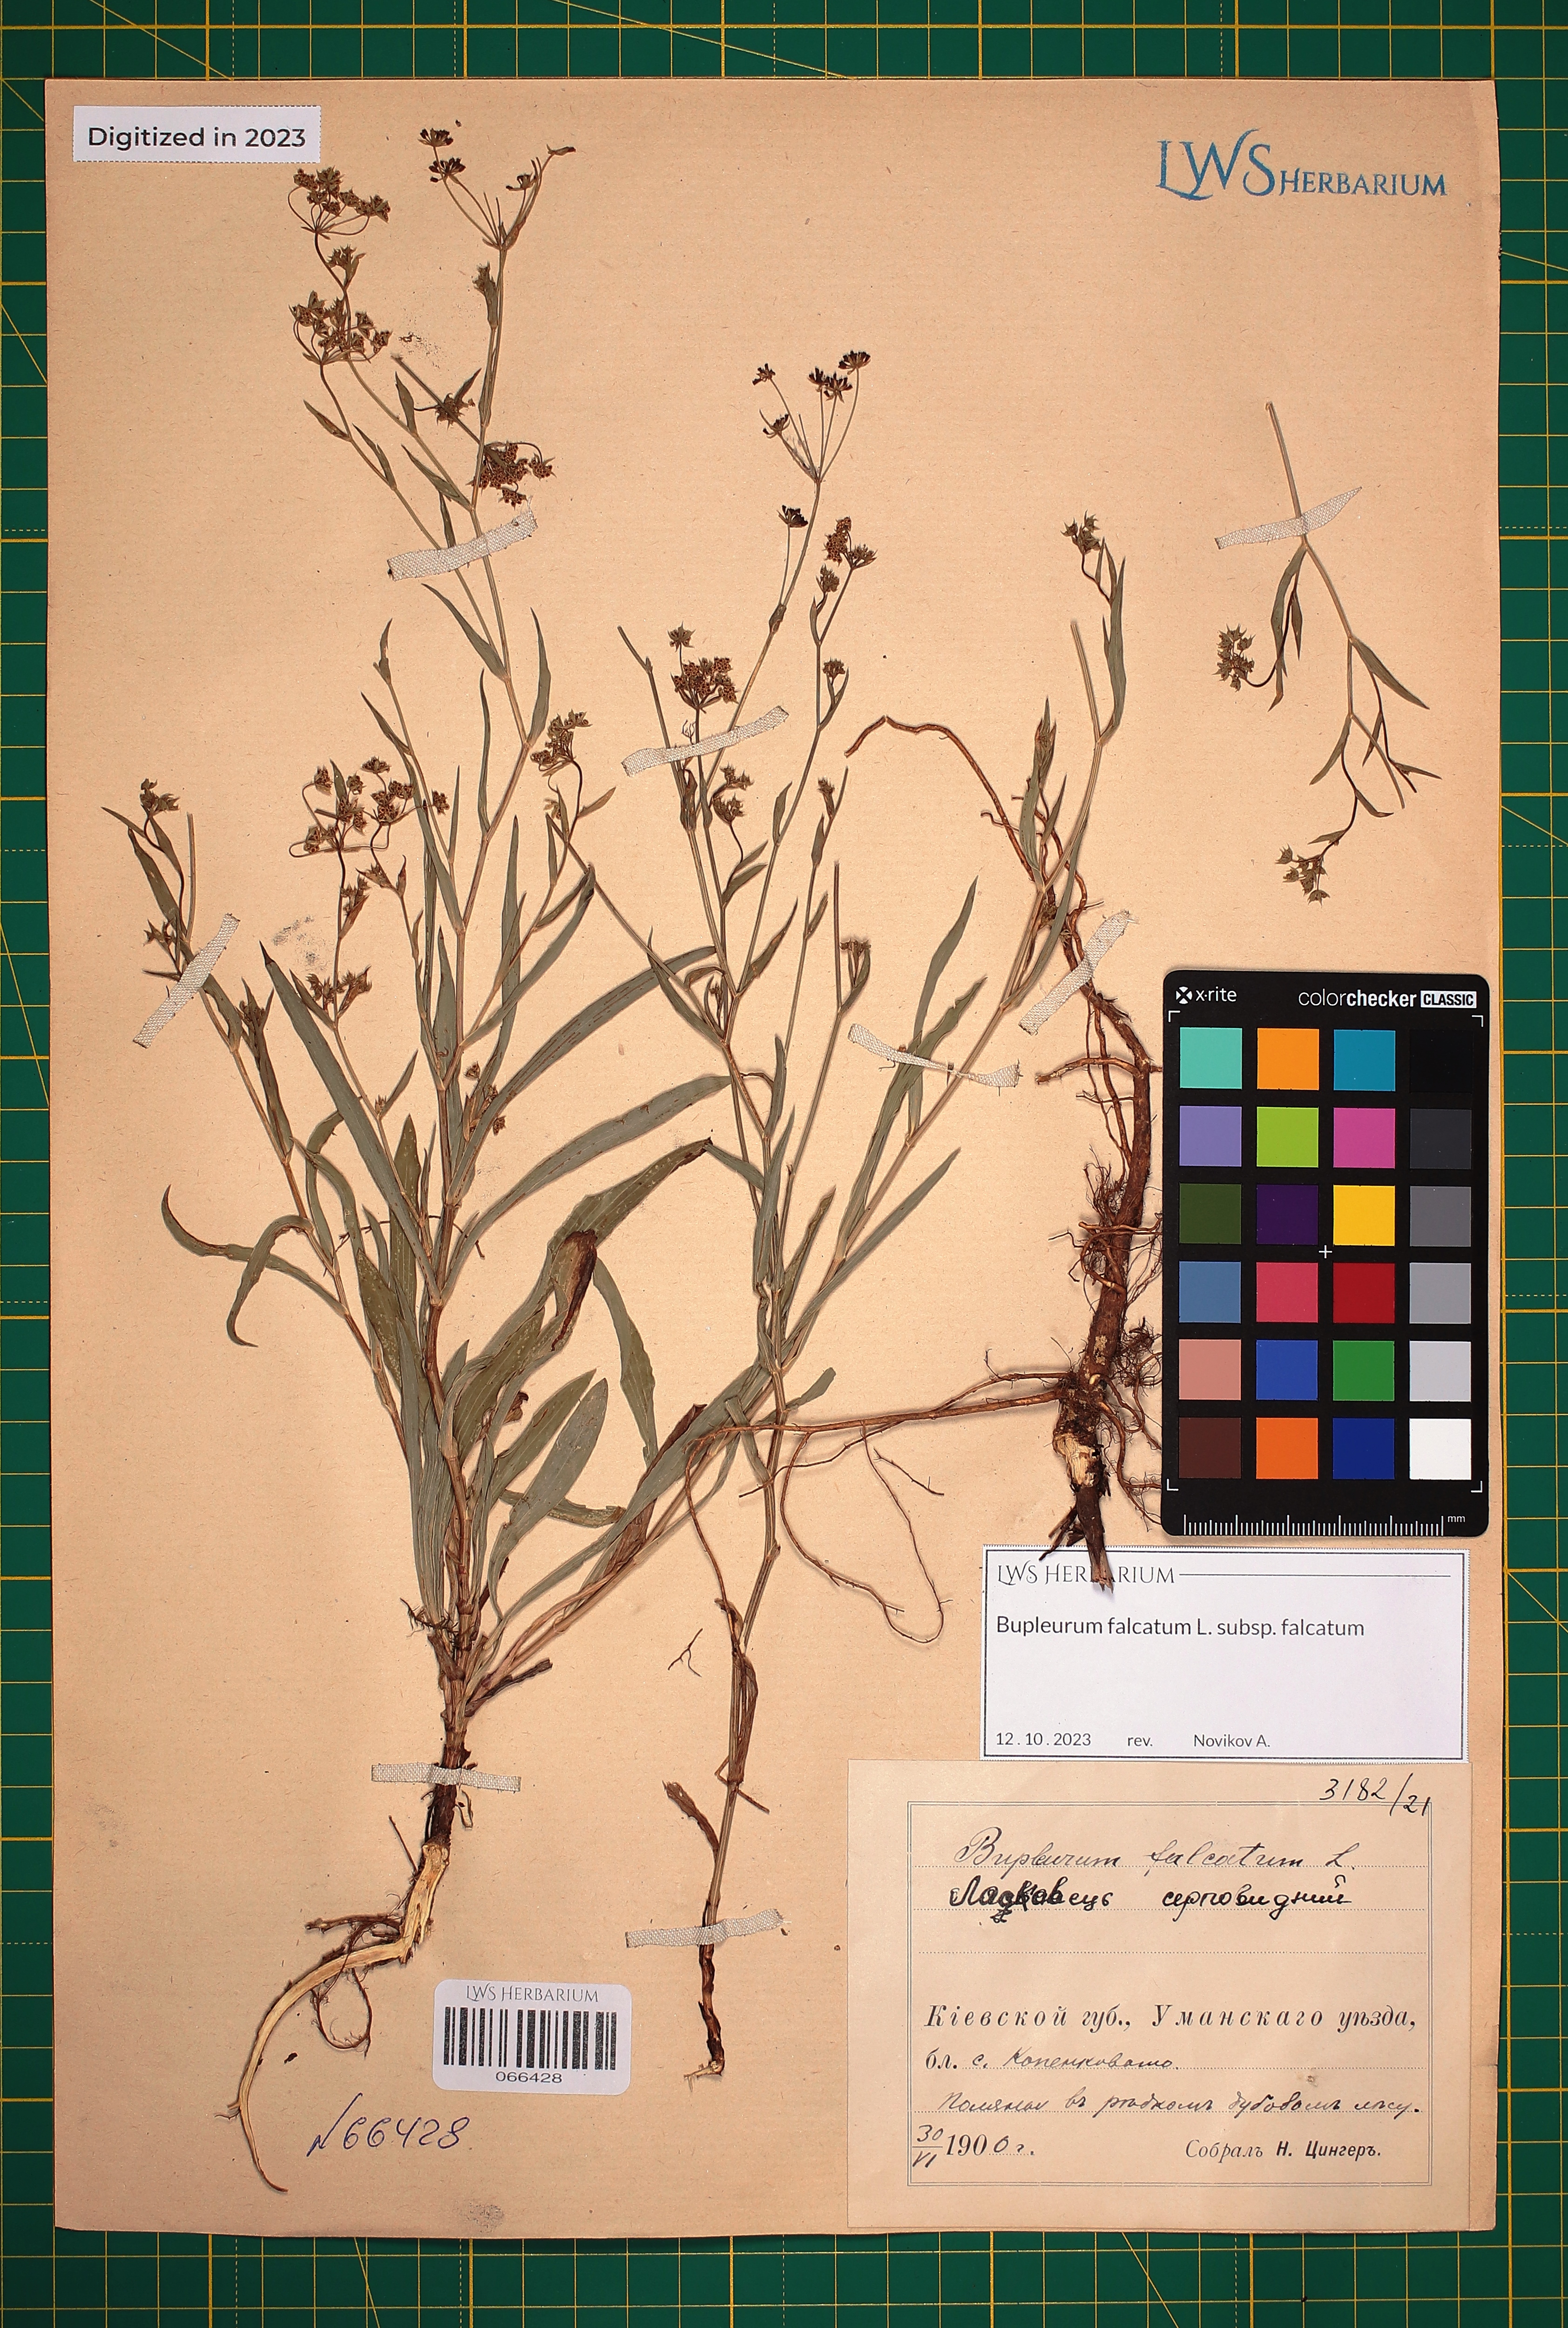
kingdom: Plantae
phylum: Tracheophyta
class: Magnoliopsida
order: Apiales
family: Apiaceae
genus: Bupleurum
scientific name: Bupleurum falcatum
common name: Sickle-leaved hare's-ear
